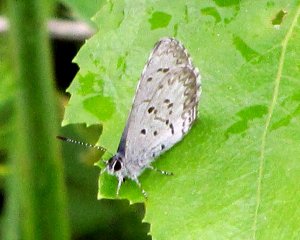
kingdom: Animalia
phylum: Arthropoda
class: Insecta
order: Lepidoptera
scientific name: Lepidoptera
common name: Butterflies
